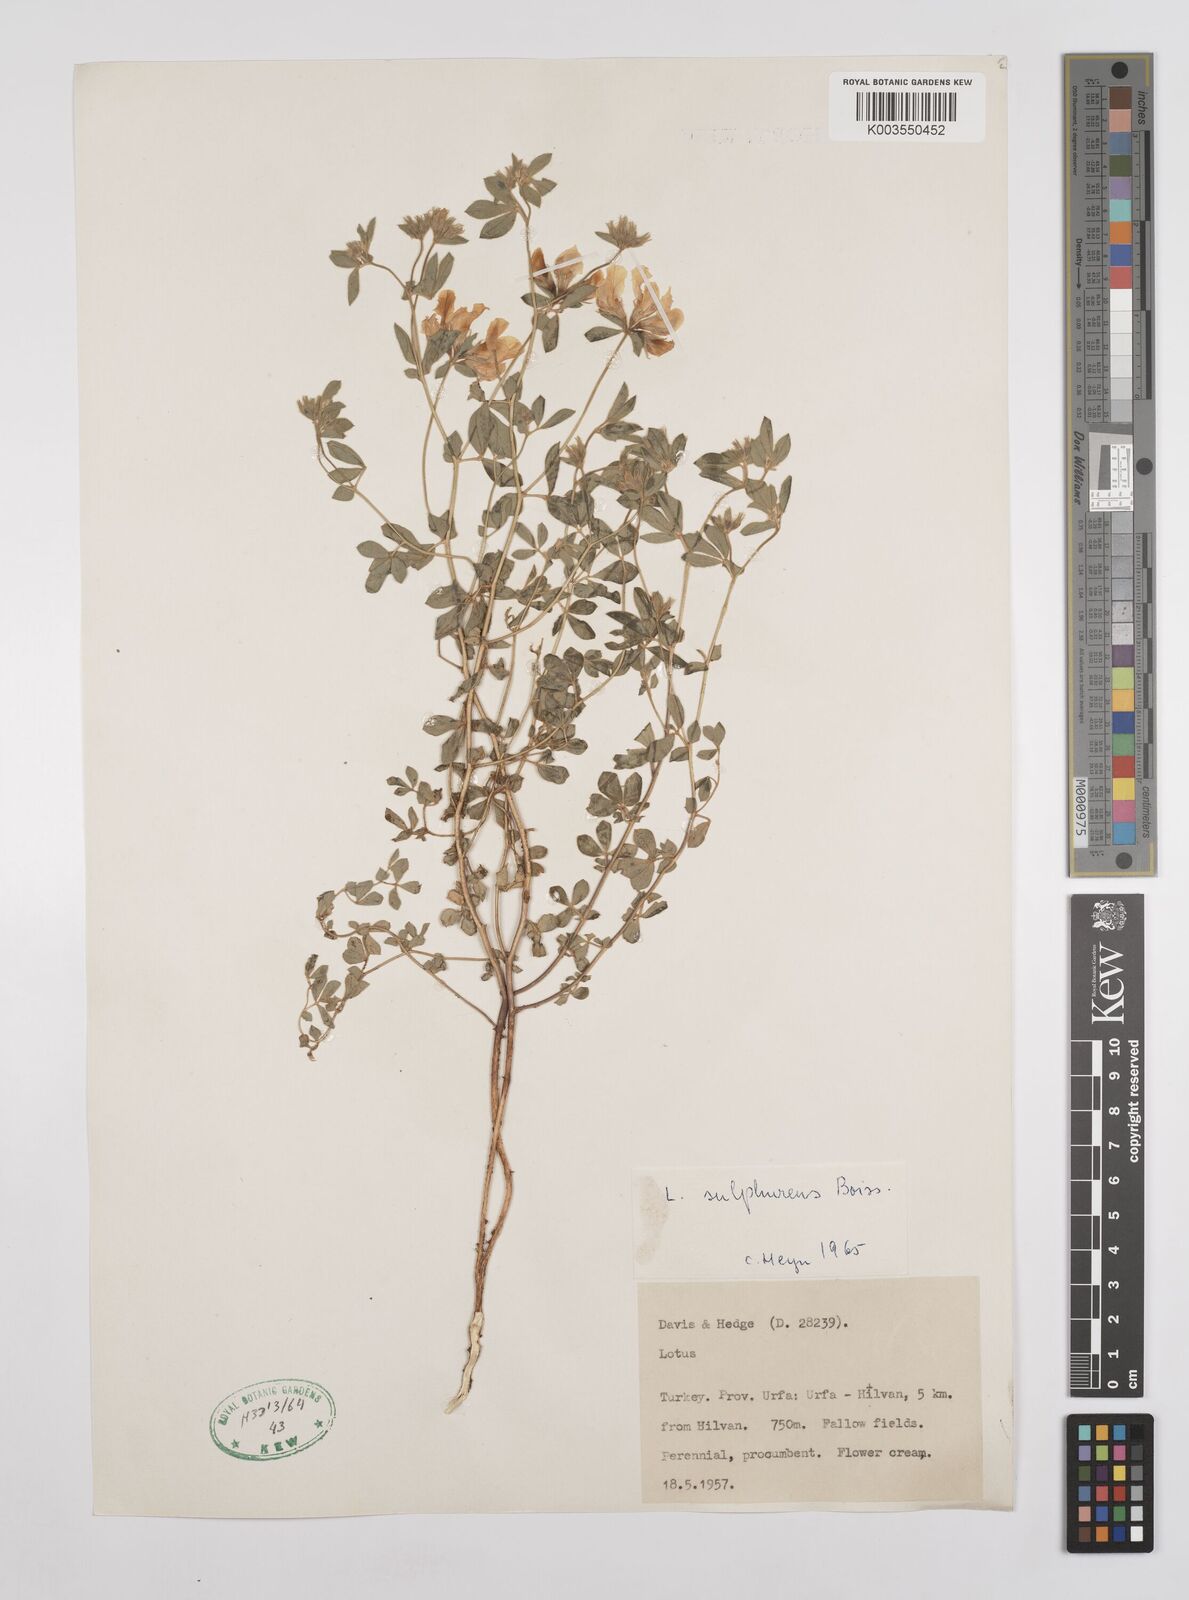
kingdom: Plantae
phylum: Tracheophyta
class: Magnoliopsida
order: Fabales
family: Fabaceae
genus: Lotus
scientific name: Lotus aegaeus
